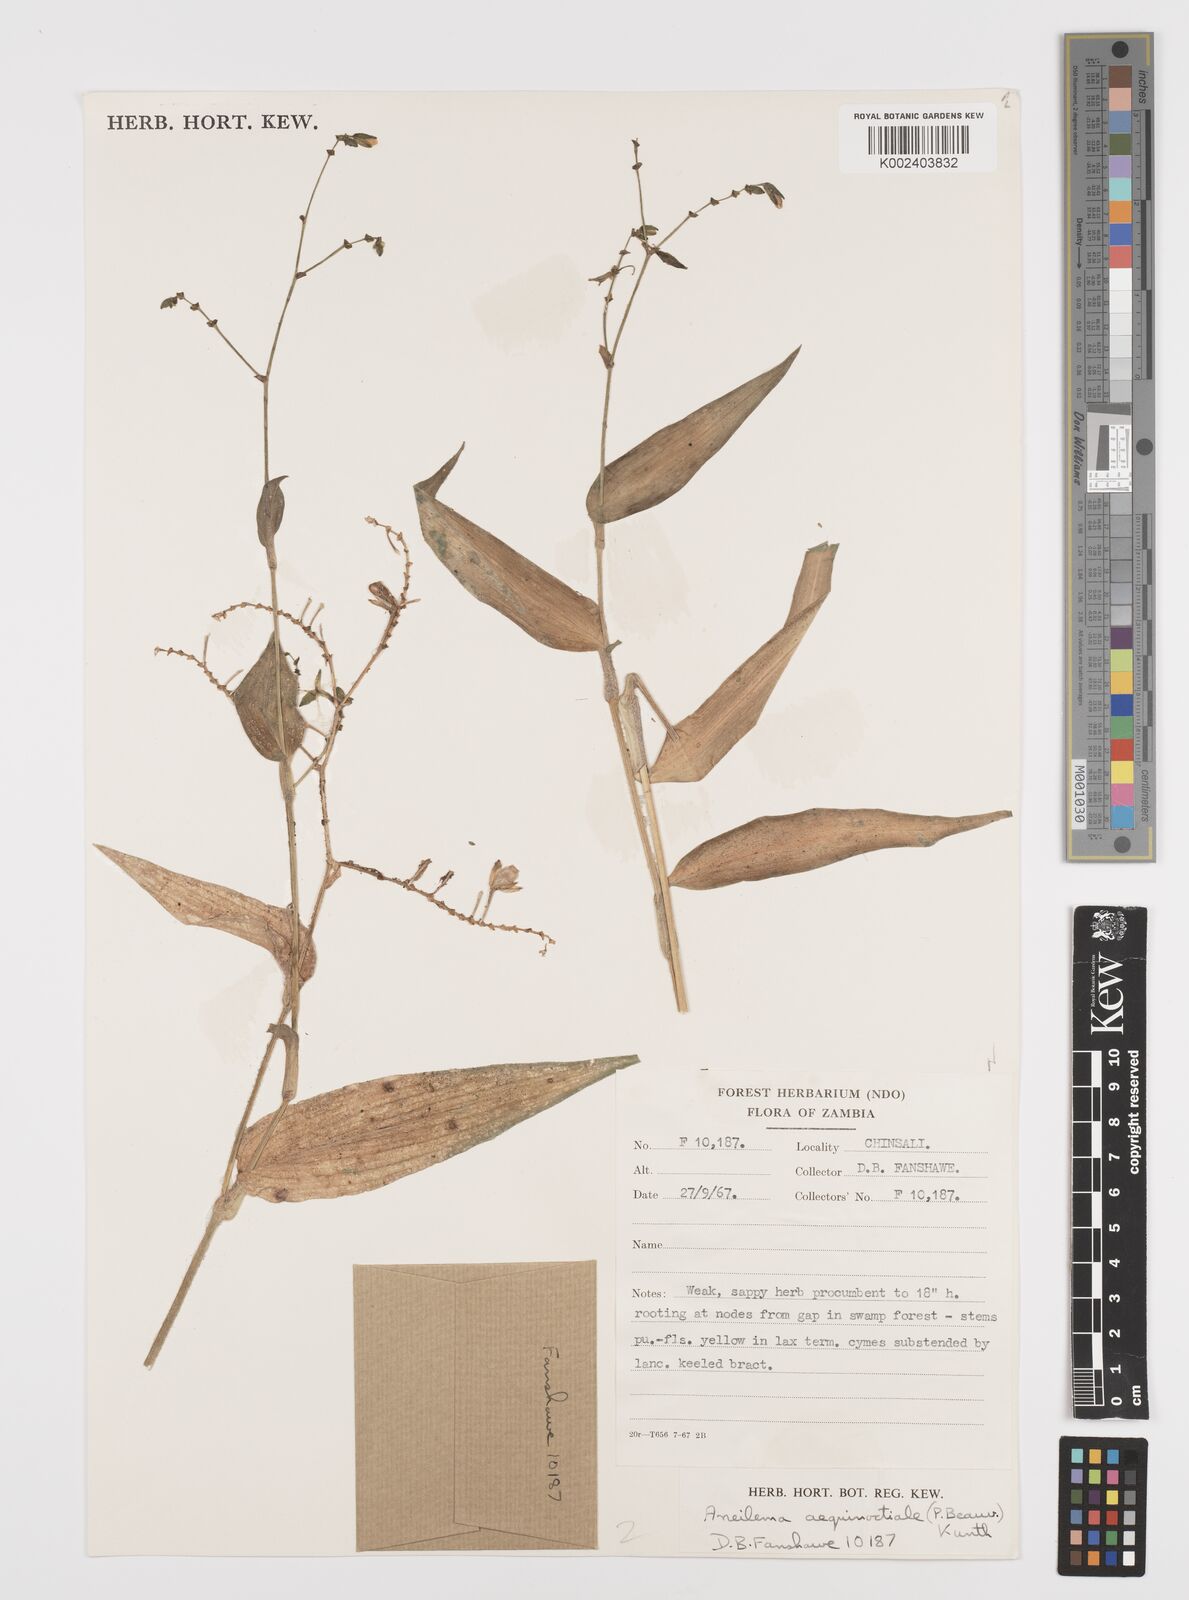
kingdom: Plantae
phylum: Tracheophyta
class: Liliopsida
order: Commelinales
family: Commelinaceae
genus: Aneilema
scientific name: Aneilema aequinoctiale
